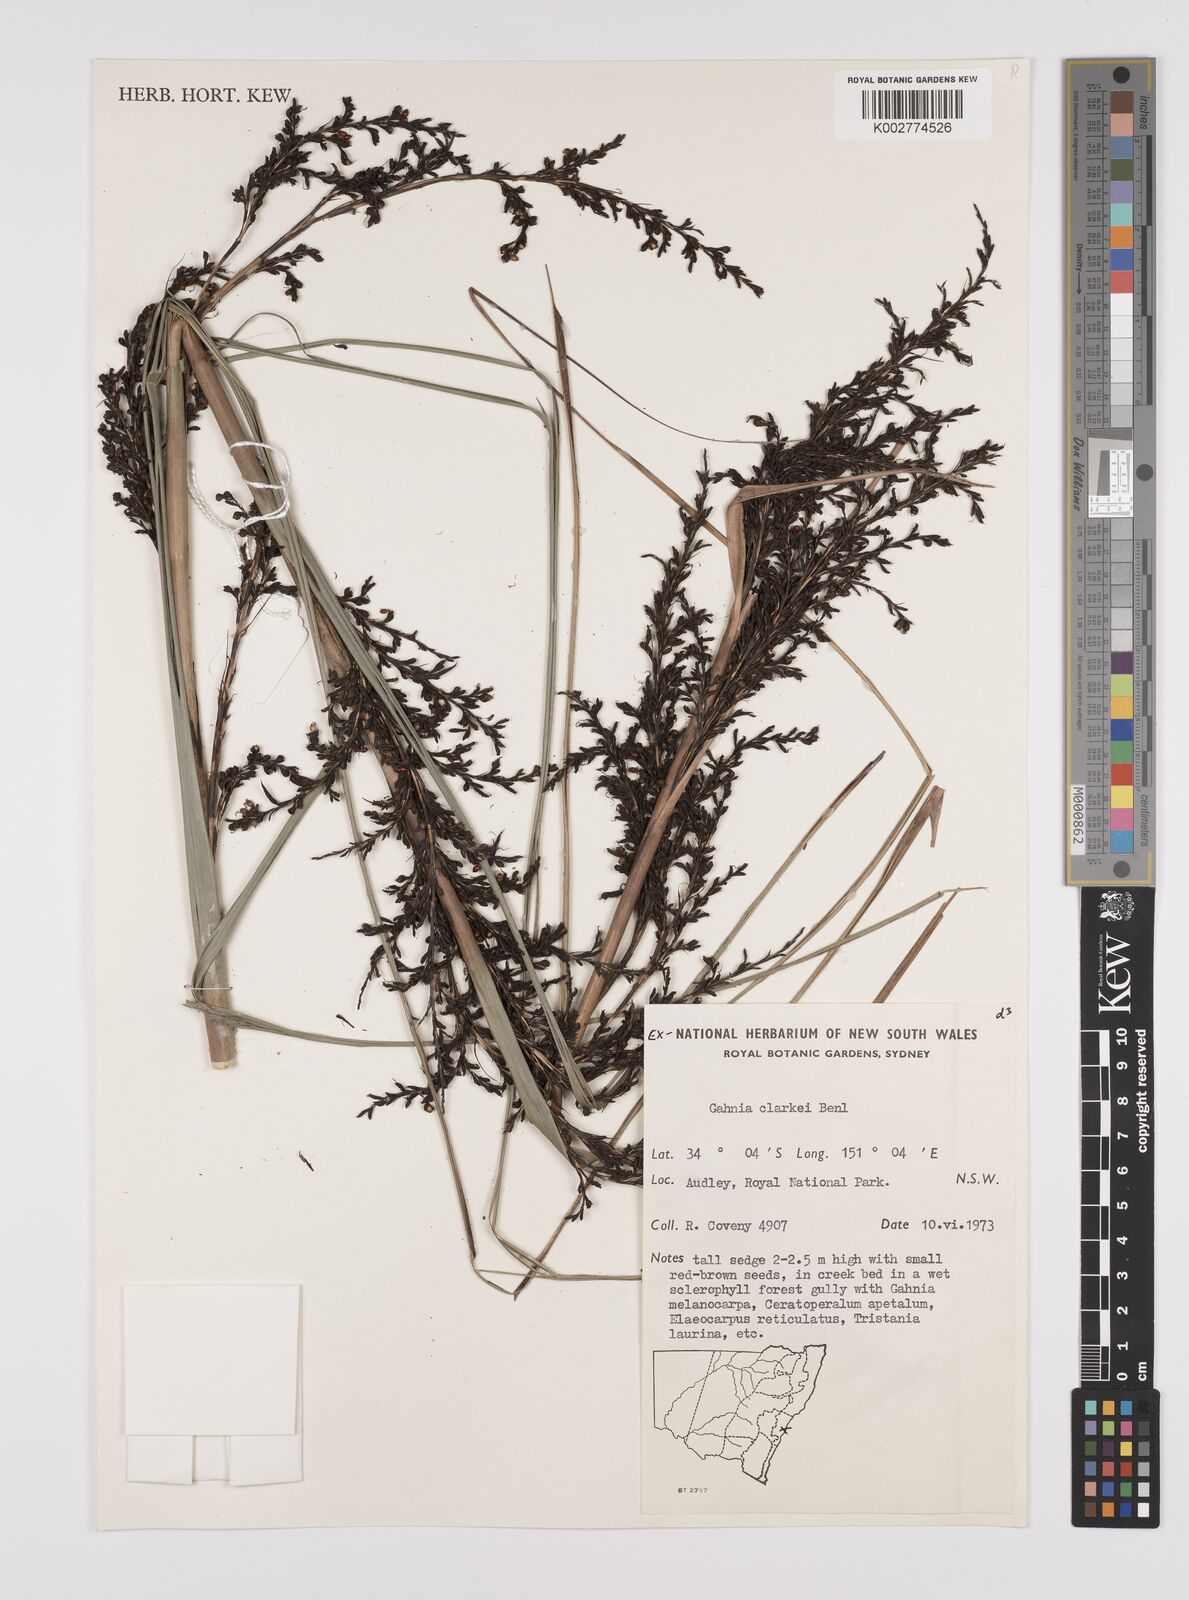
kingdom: Plantae
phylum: Tracheophyta
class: Liliopsida
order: Poales
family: Cyperaceae
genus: Gahnia
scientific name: Gahnia clarkei
